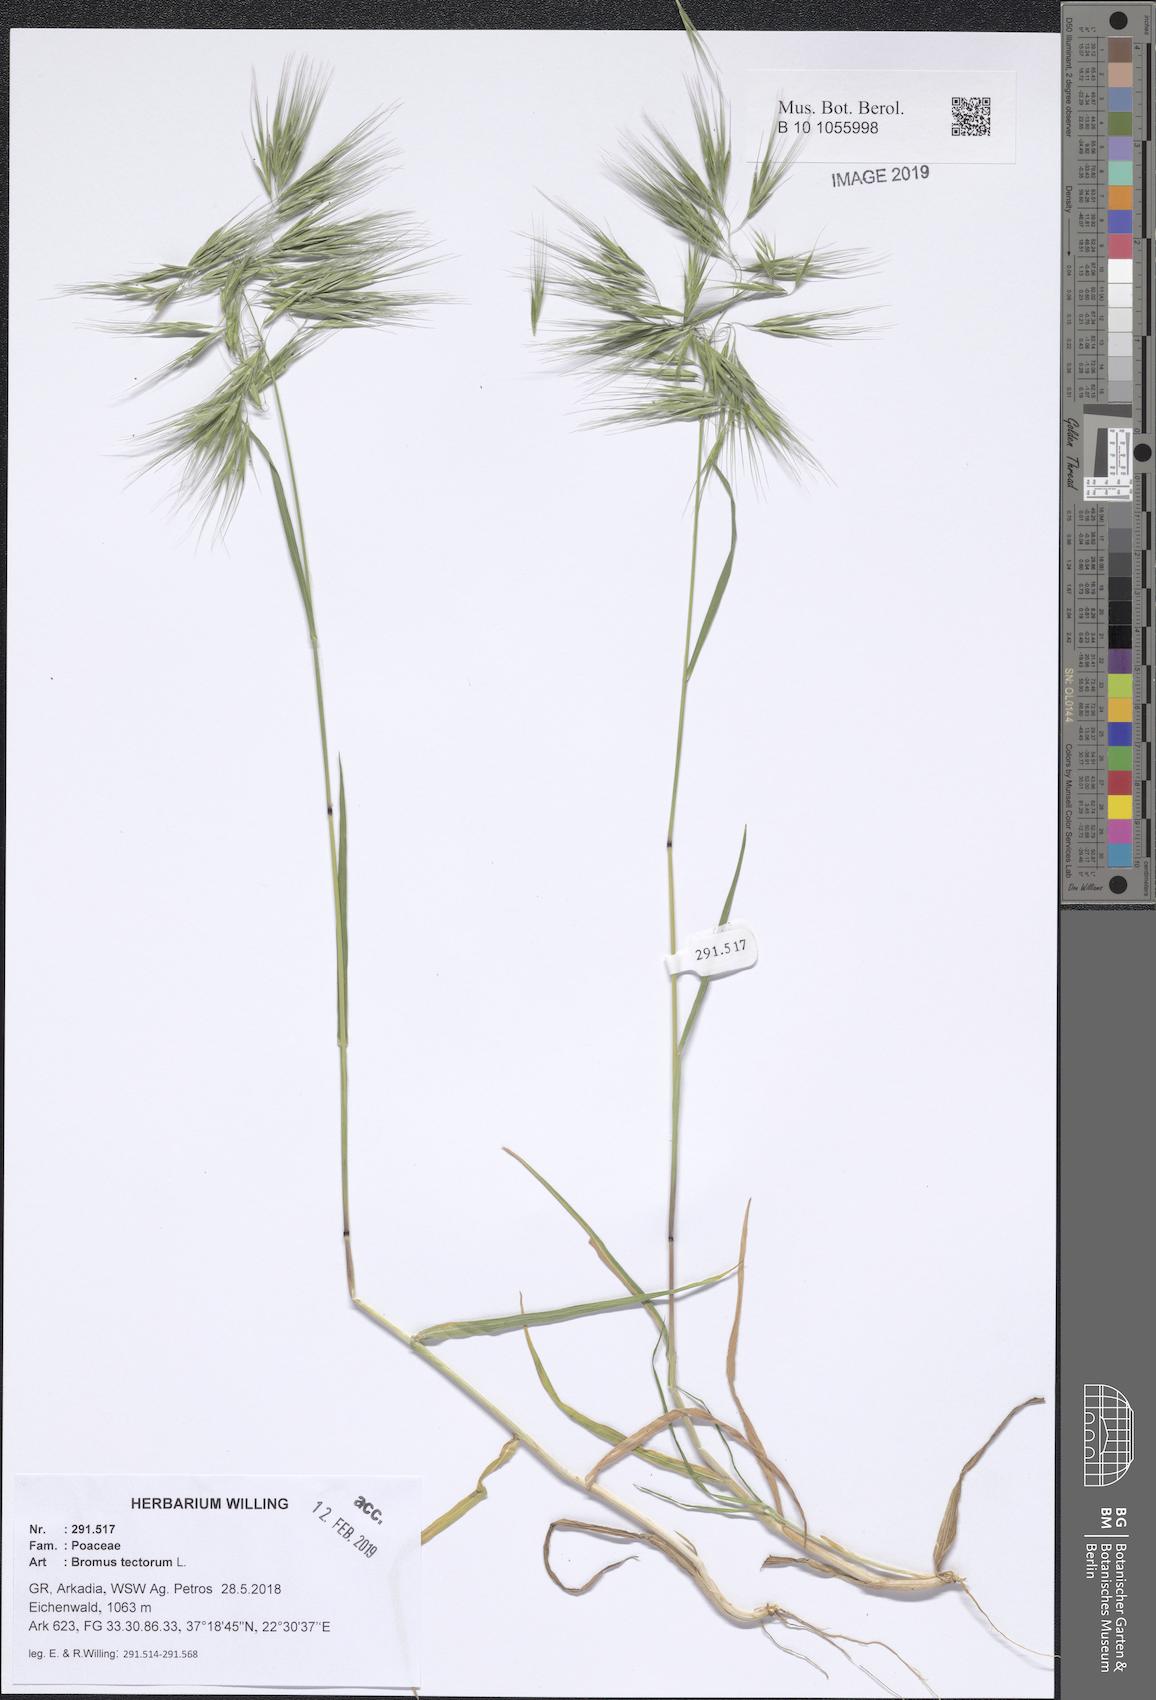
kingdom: Plantae
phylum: Tracheophyta
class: Liliopsida
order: Poales
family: Poaceae
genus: Bromus
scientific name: Bromus tectorum
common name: Cheatgrass
